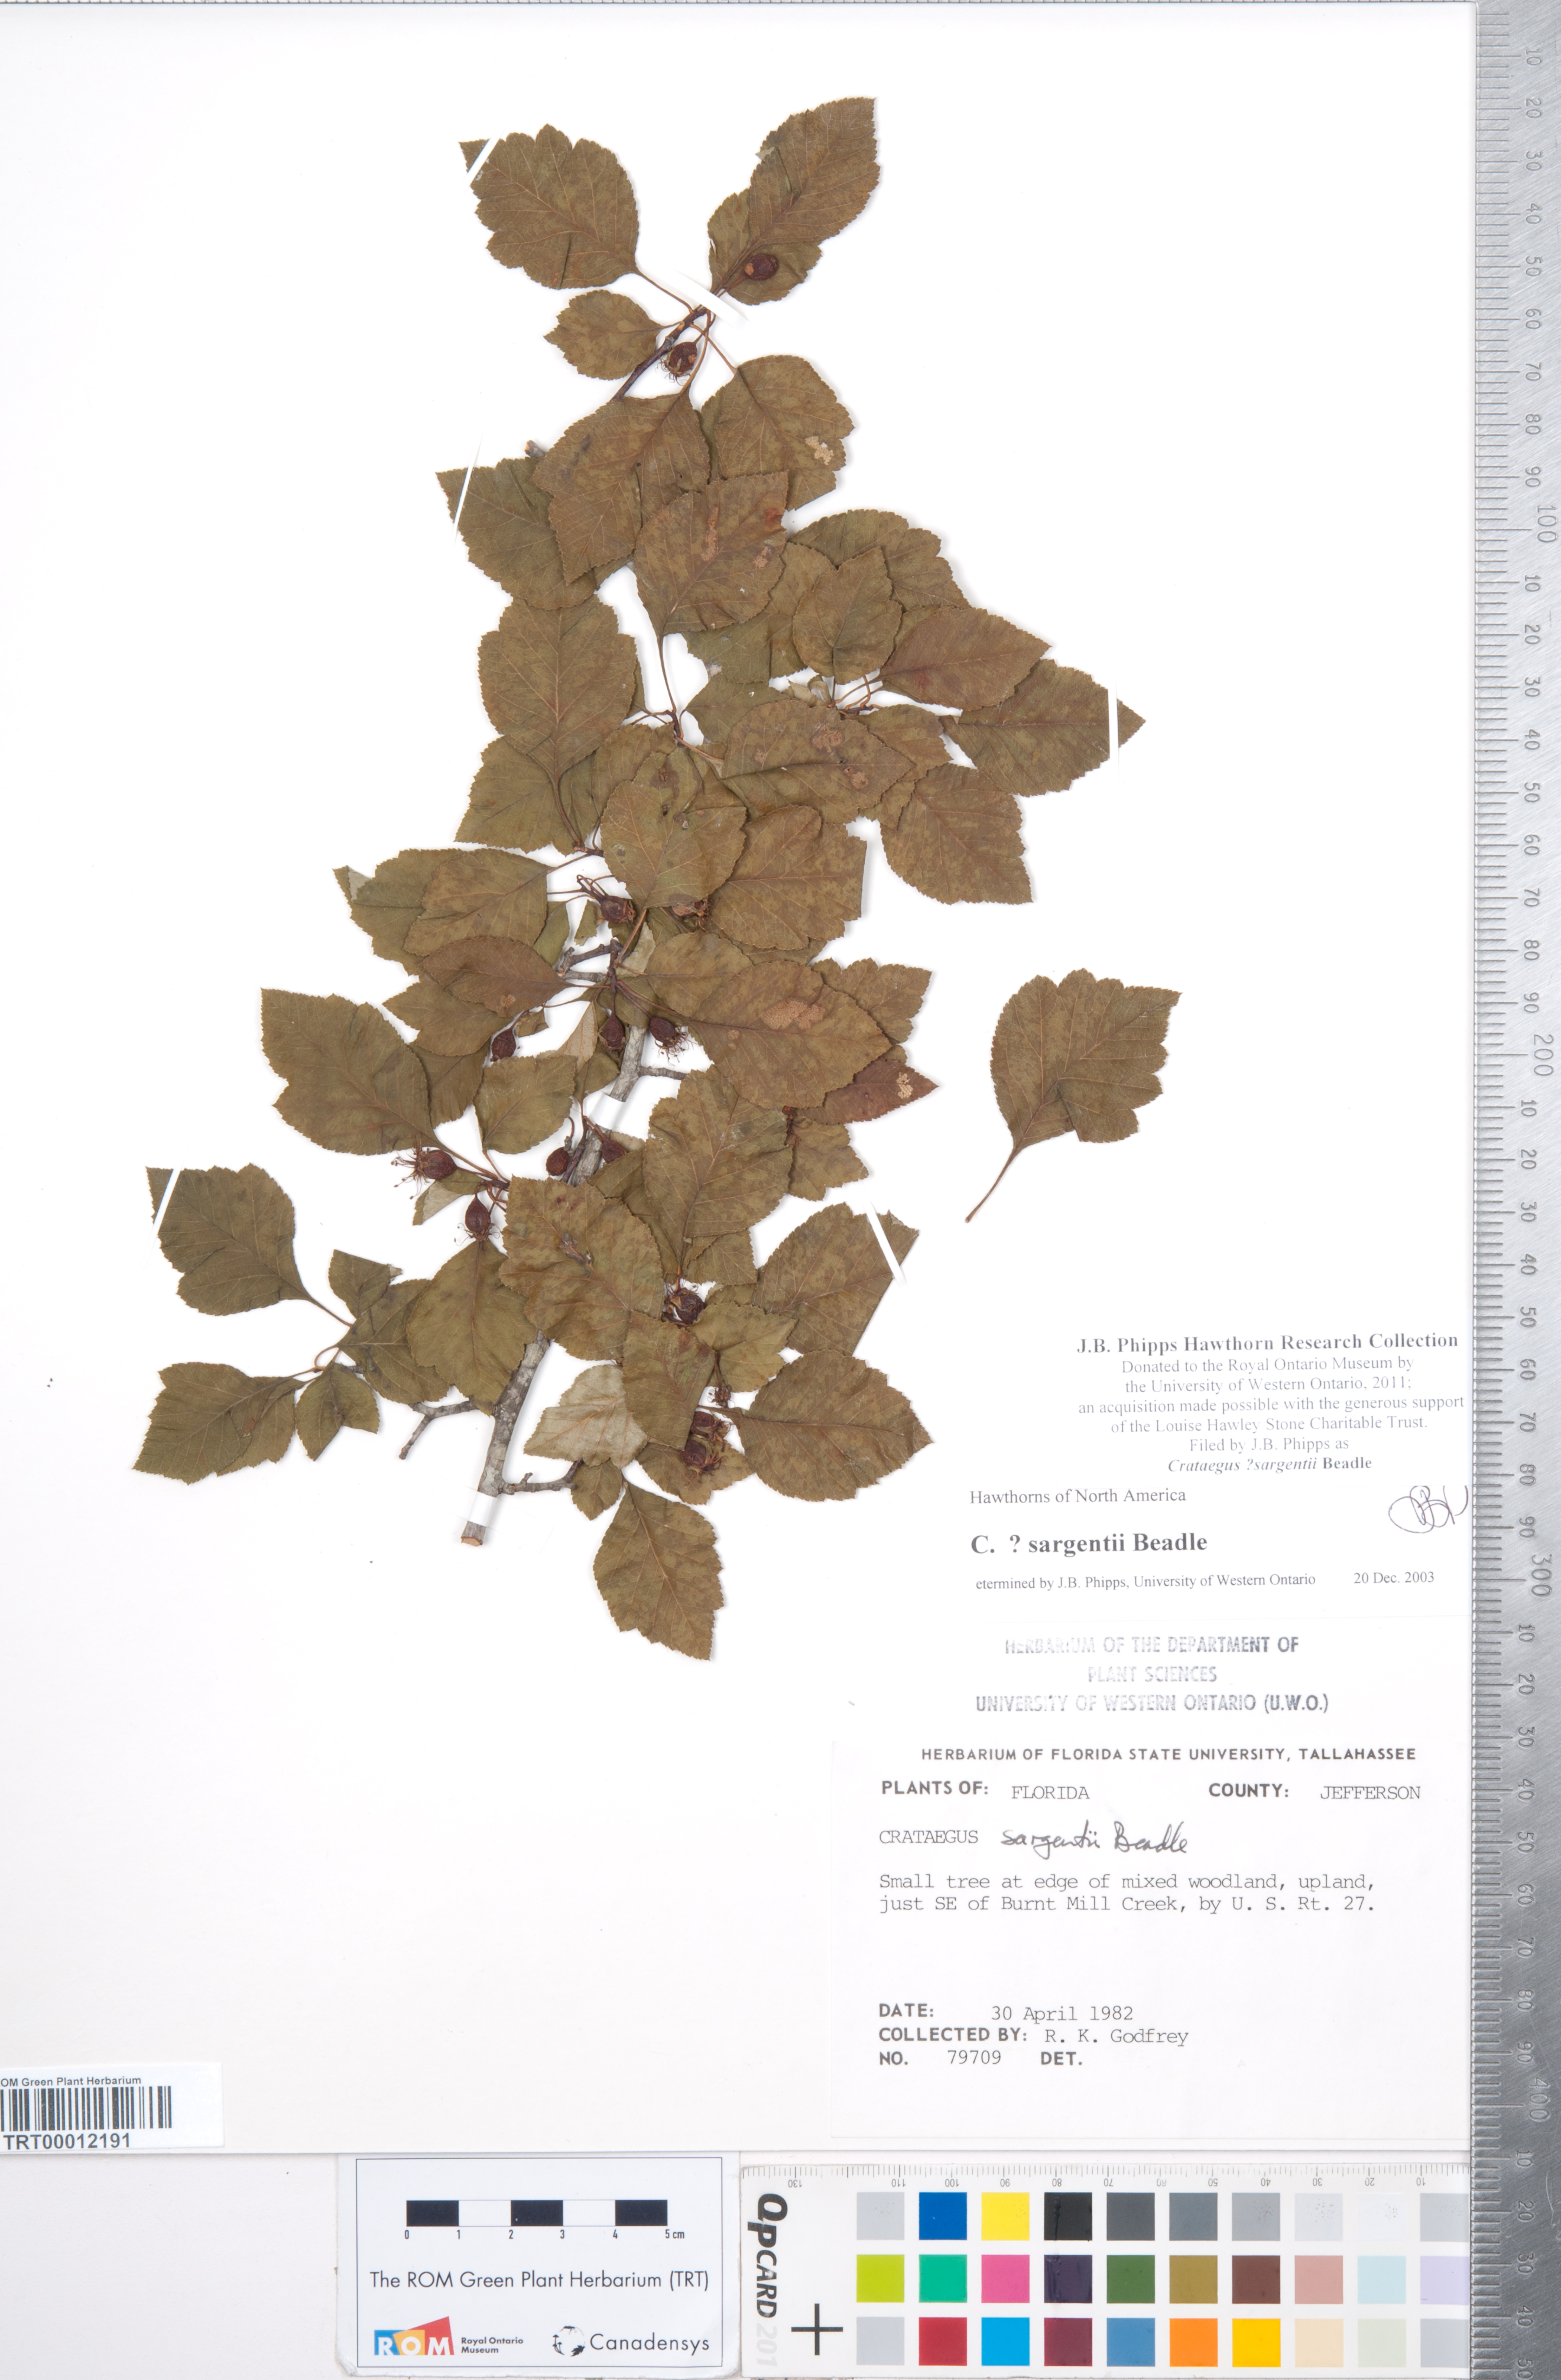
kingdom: Plantae
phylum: Tracheophyta
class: Magnoliopsida
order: Rosales
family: Rosaceae
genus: Crataegus
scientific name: Crataegus sargentii
